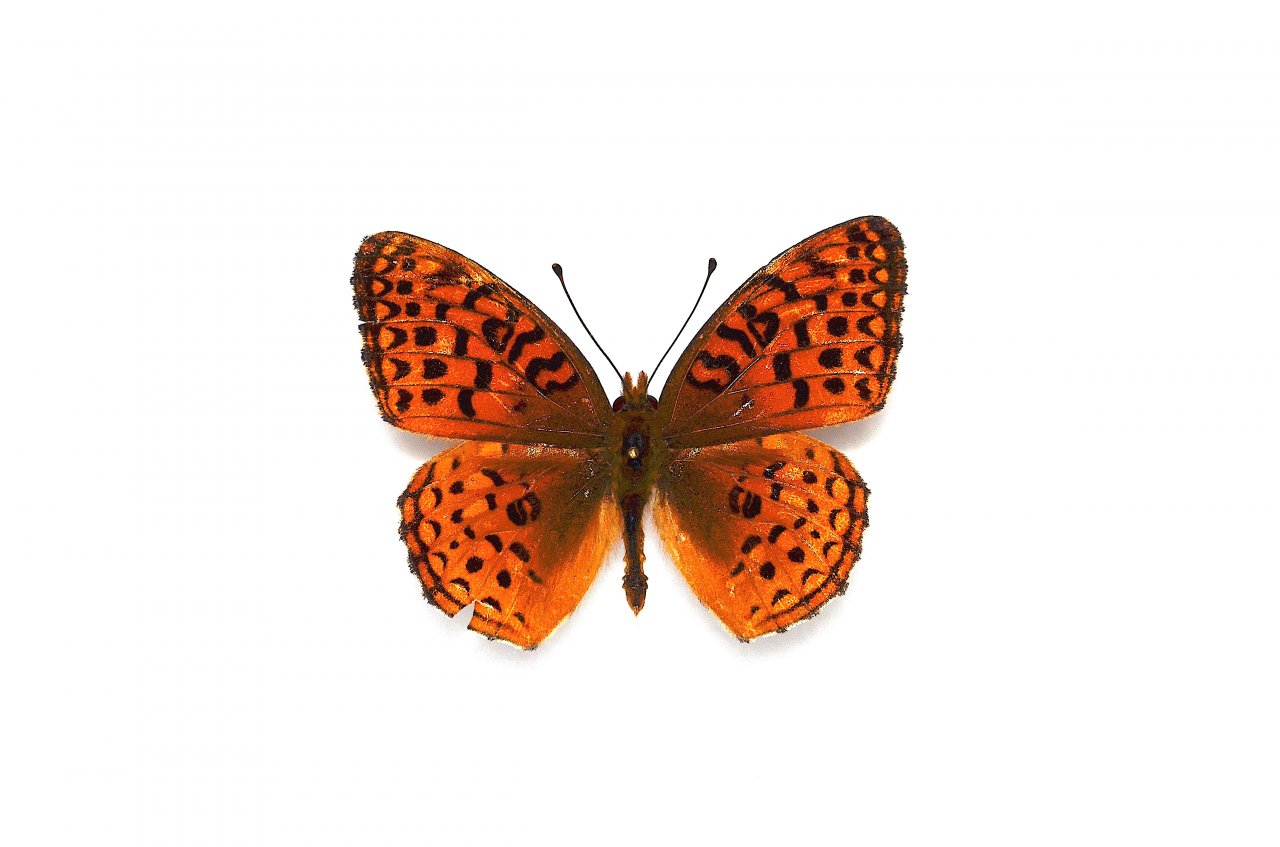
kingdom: Animalia
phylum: Arthropoda
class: Insecta
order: Lepidoptera
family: Nymphalidae
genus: Speyeria
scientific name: Speyeria aphrodite
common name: Aphrodite Fritillary
